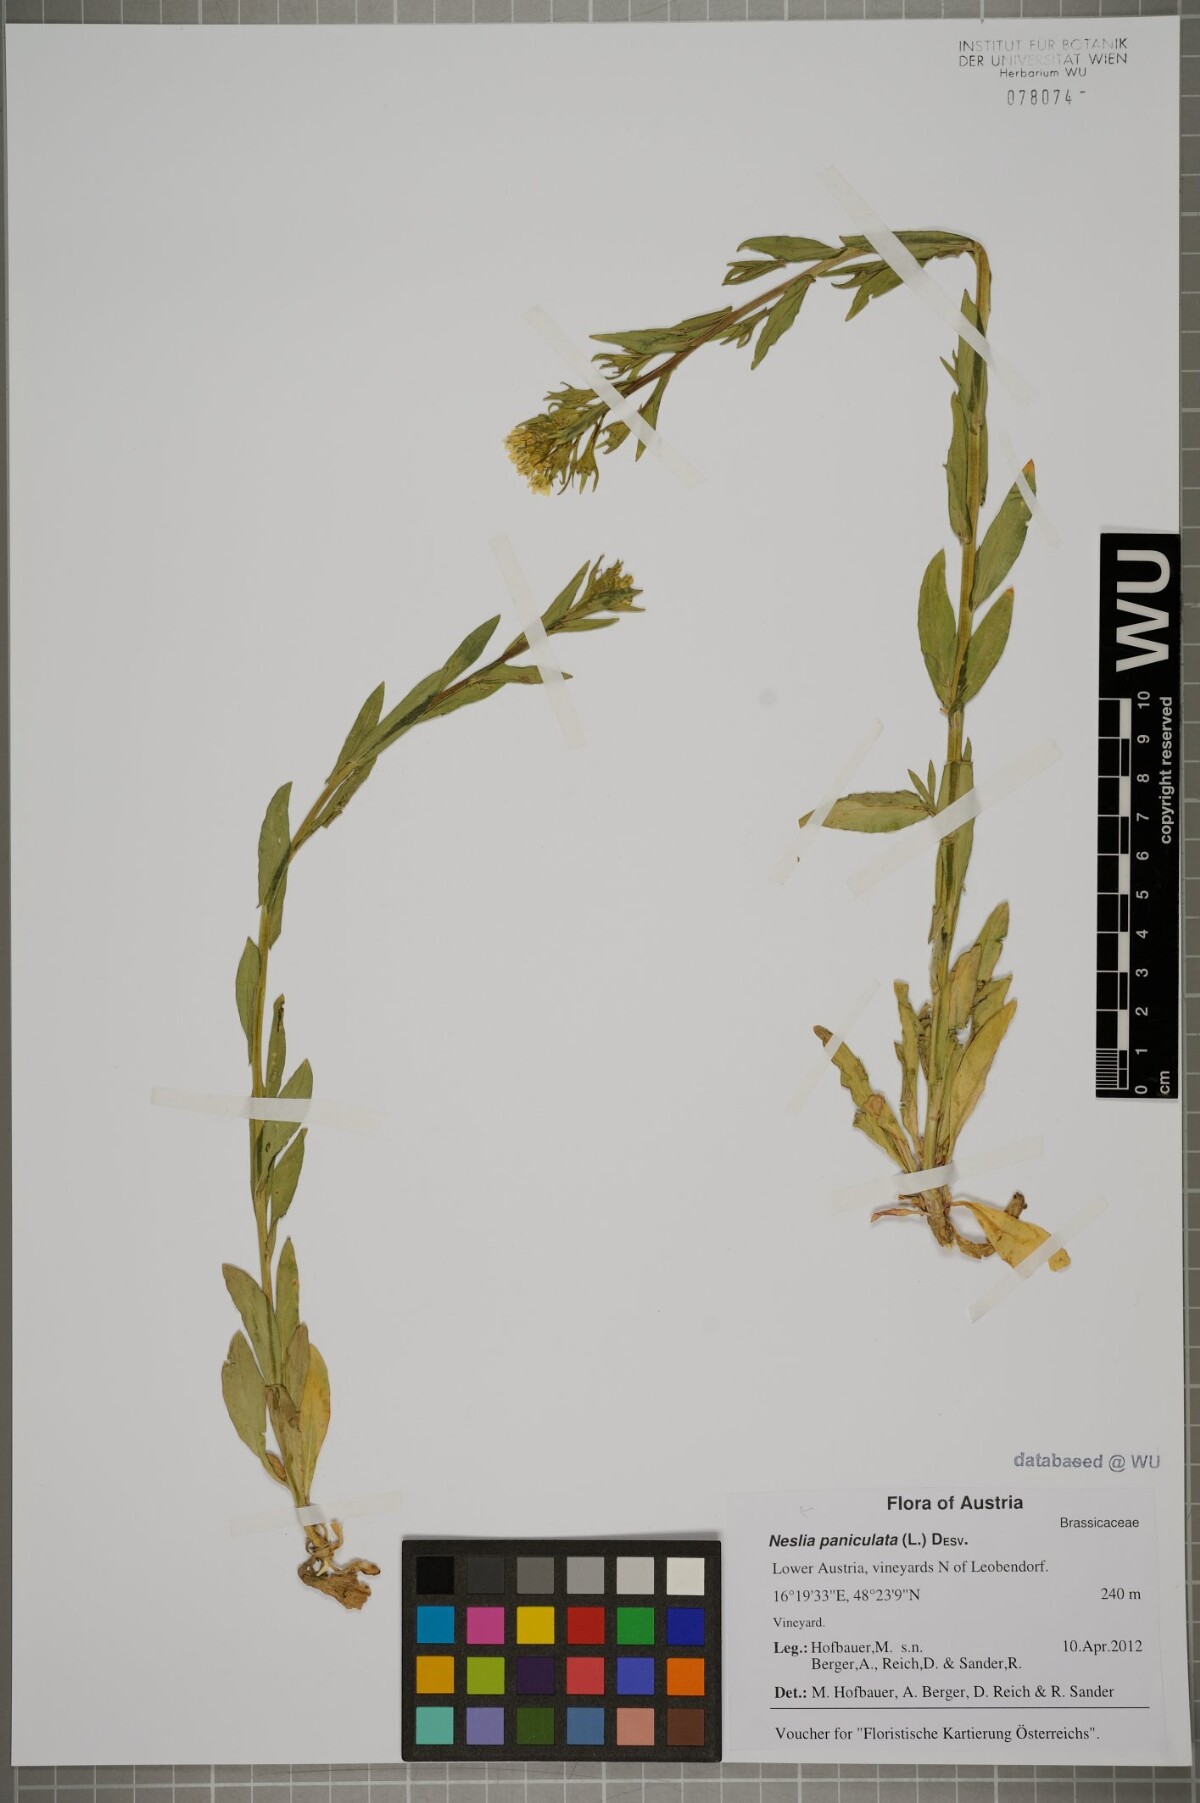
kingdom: Plantae
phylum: Tracheophyta
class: Magnoliopsida
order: Brassicales
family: Brassicaceae
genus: Neslia
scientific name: Neslia paniculata
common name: Ball mustard
